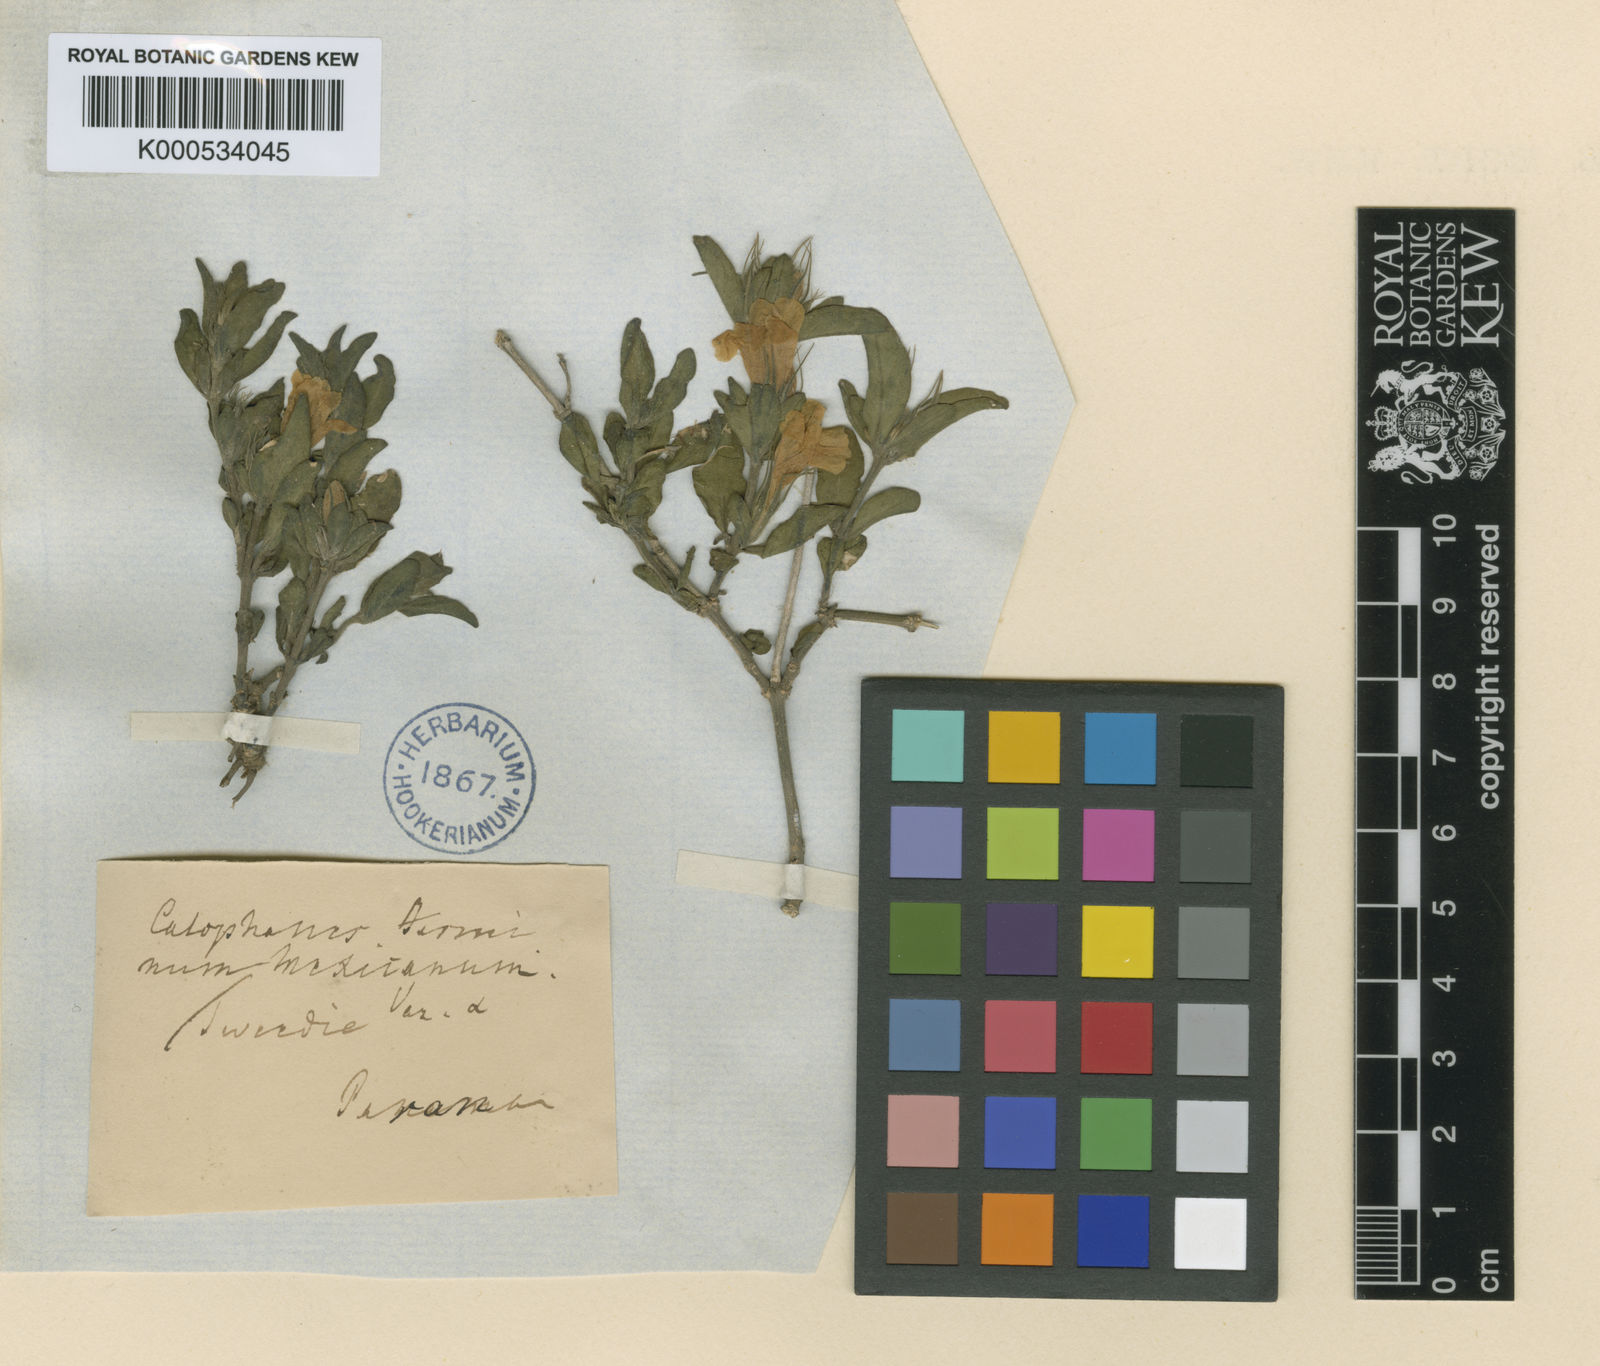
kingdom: Plantae
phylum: Tracheophyta
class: Magnoliopsida
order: Lamiales
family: Acanthaceae
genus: Dyschoriste
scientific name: Dyschoriste
